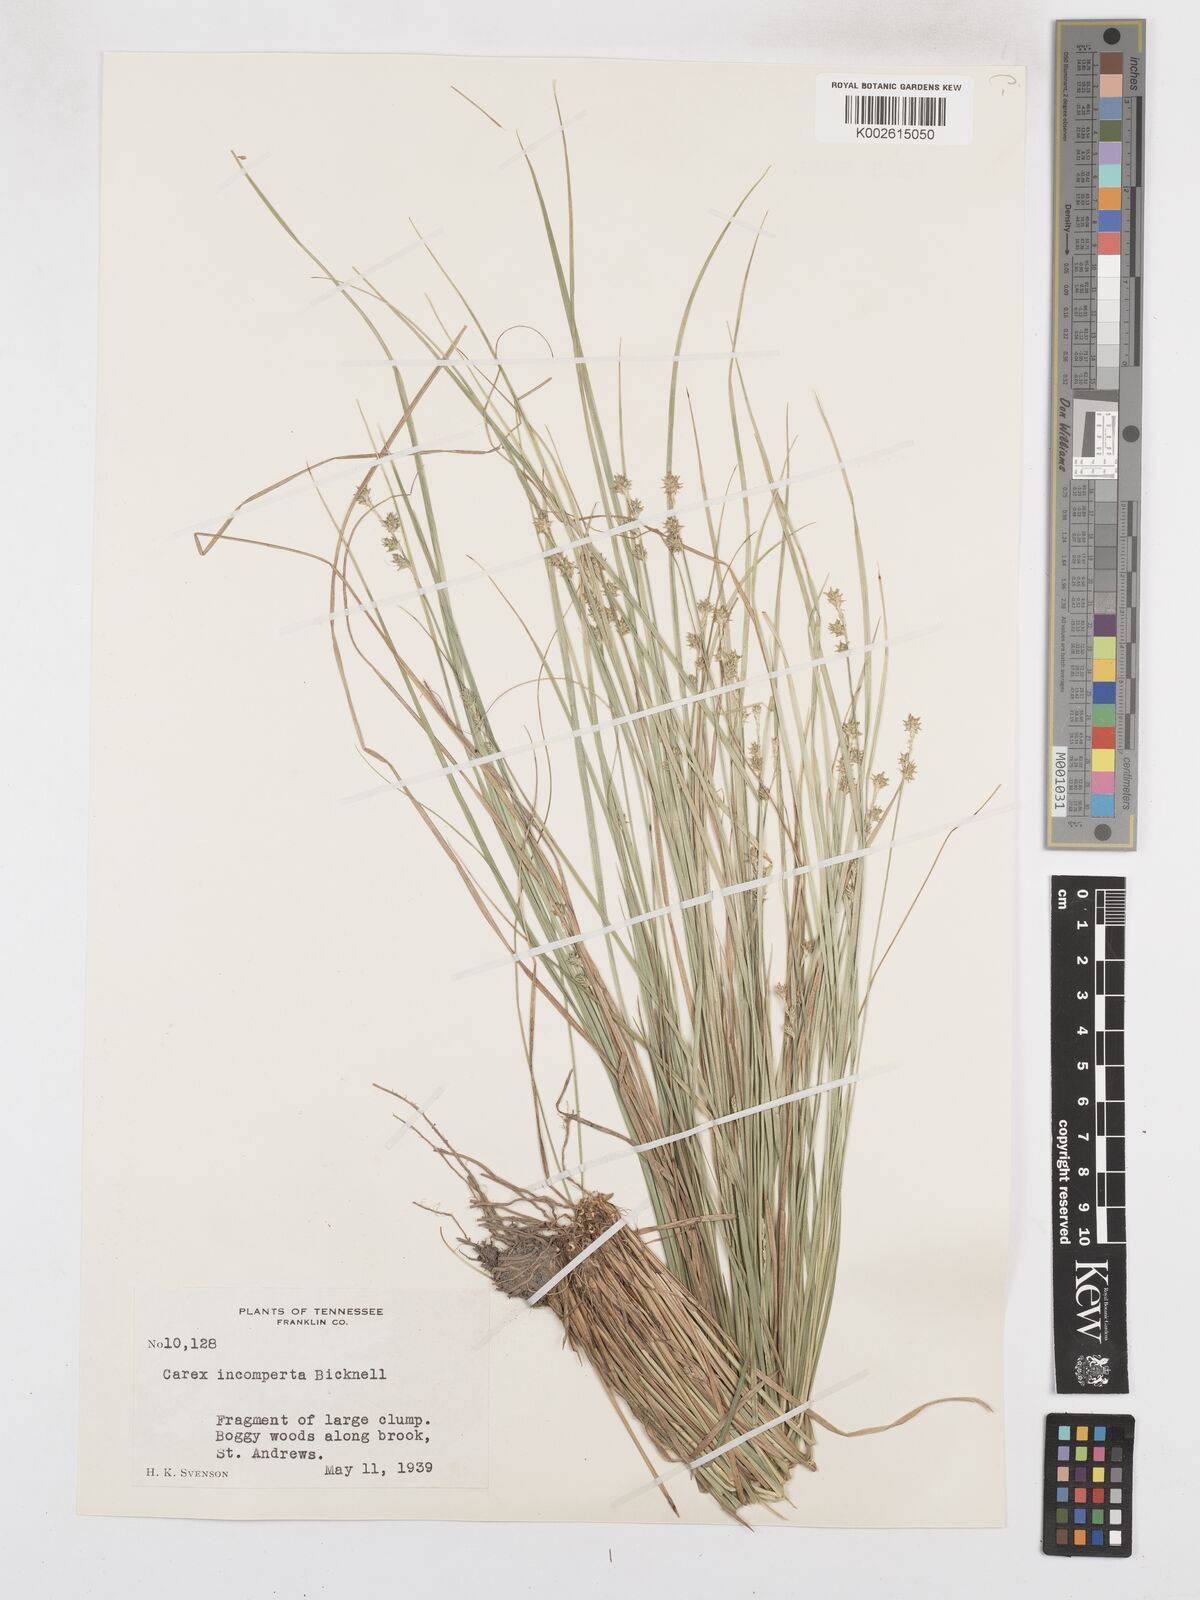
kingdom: Plantae
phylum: Tracheophyta
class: Liliopsida
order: Poales
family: Cyperaceae
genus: Carex
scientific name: Carex atlantica
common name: Atlantic sedge
